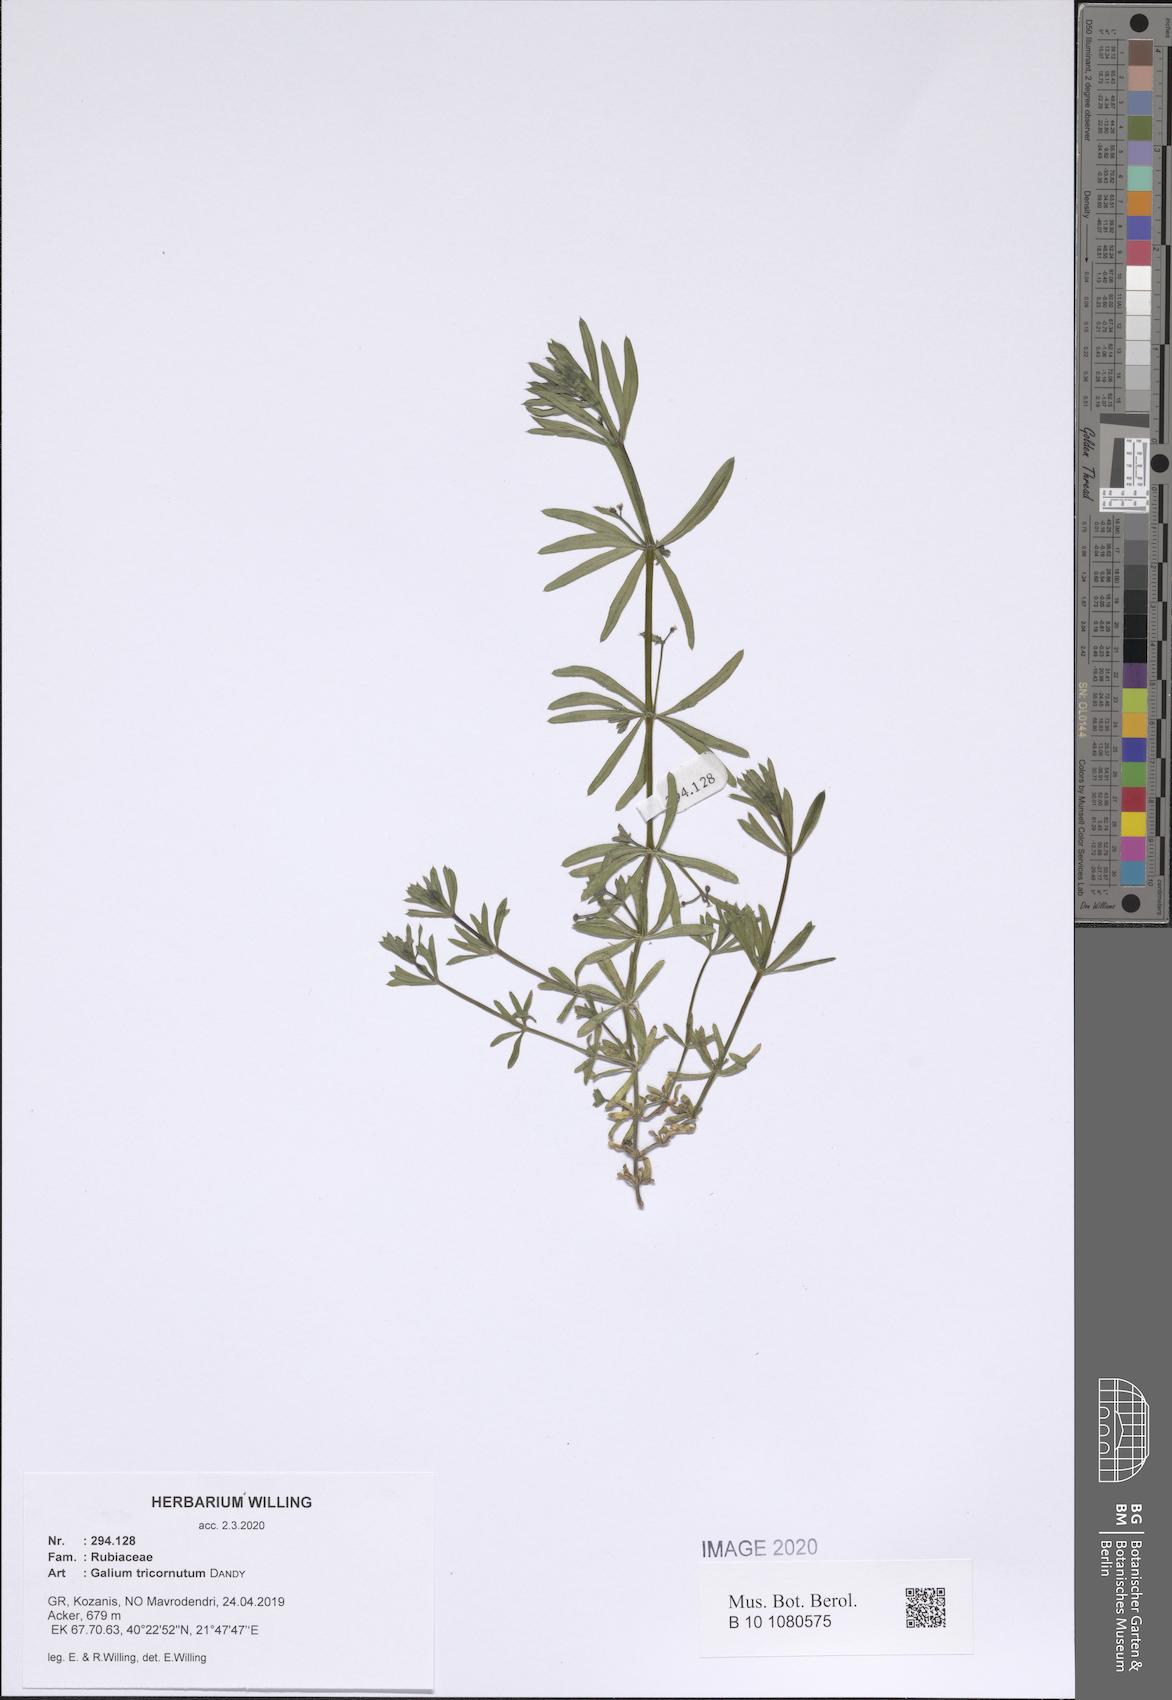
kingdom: Plantae
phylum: Tracheophyta
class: Magnoliopsida
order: Gentianales
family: Rubiaceae
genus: Galium
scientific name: Galium tricornutum
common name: Corn cleavers
